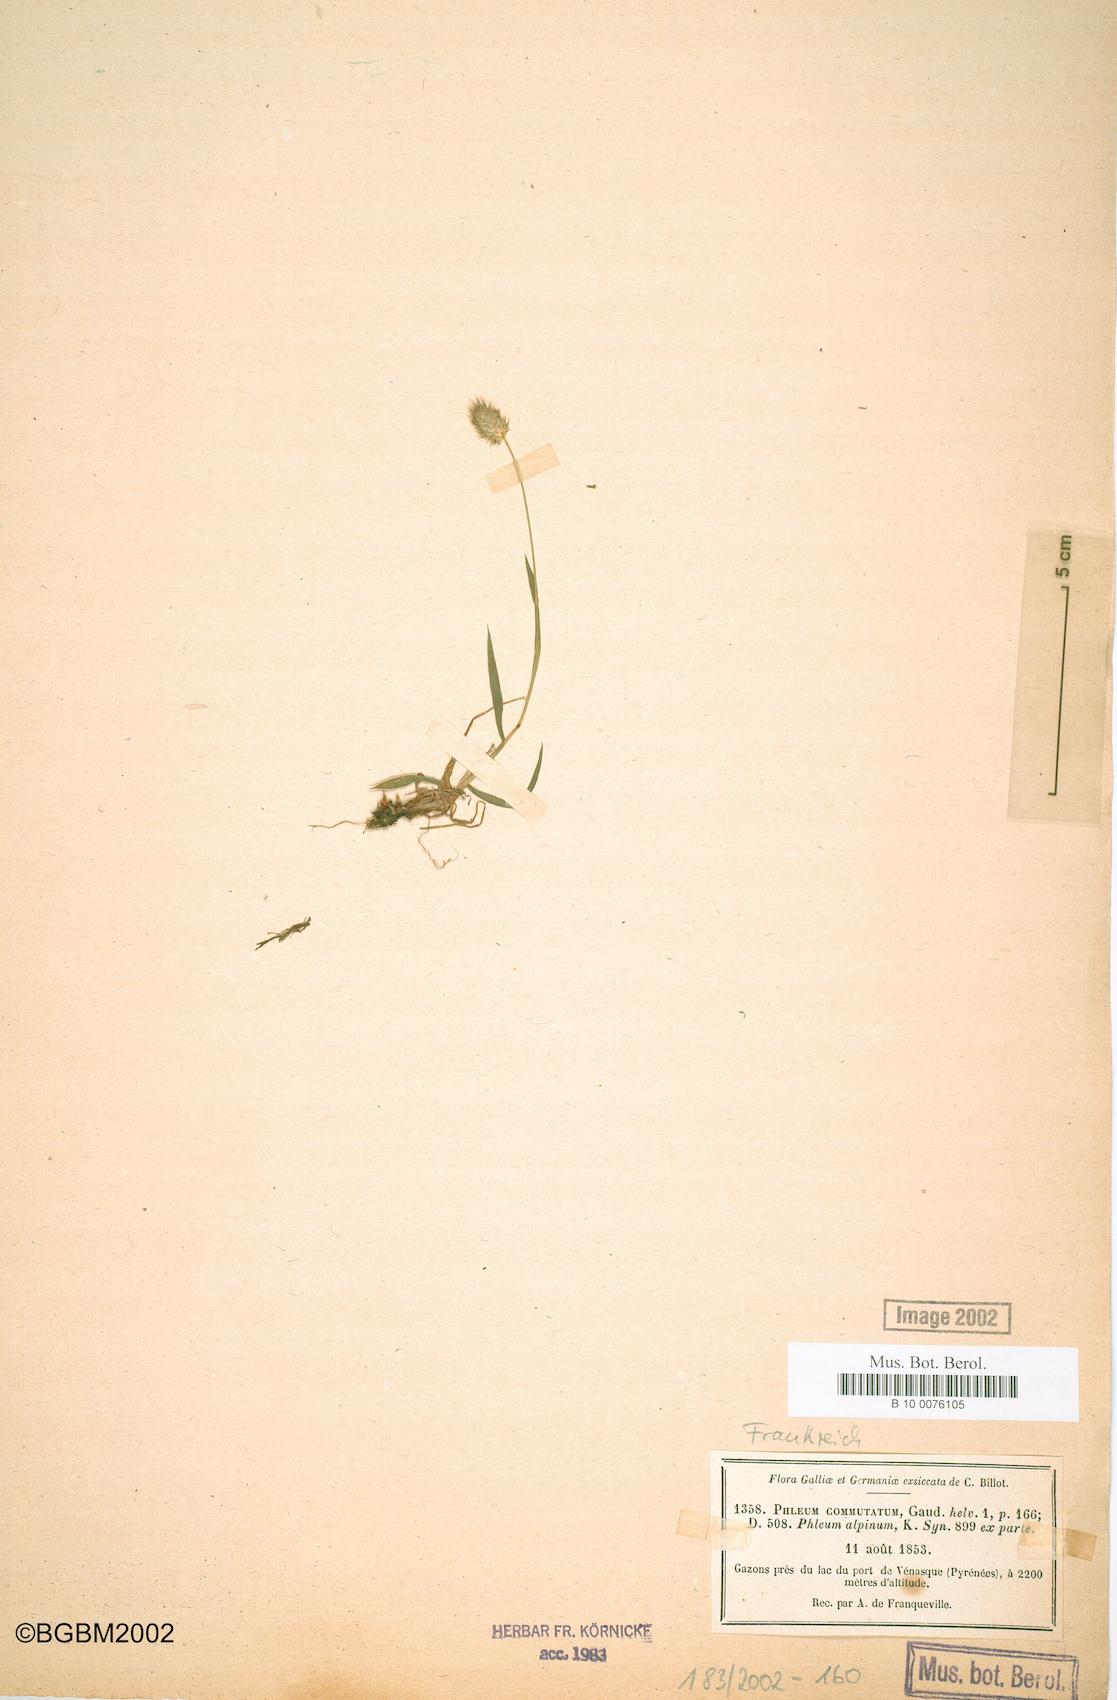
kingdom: Plantae
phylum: Tracheophyta
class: Liliopsida
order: Poales
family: Poaceae
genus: Phleum
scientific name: Phleum alpinum
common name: Alpine cat's-tail
